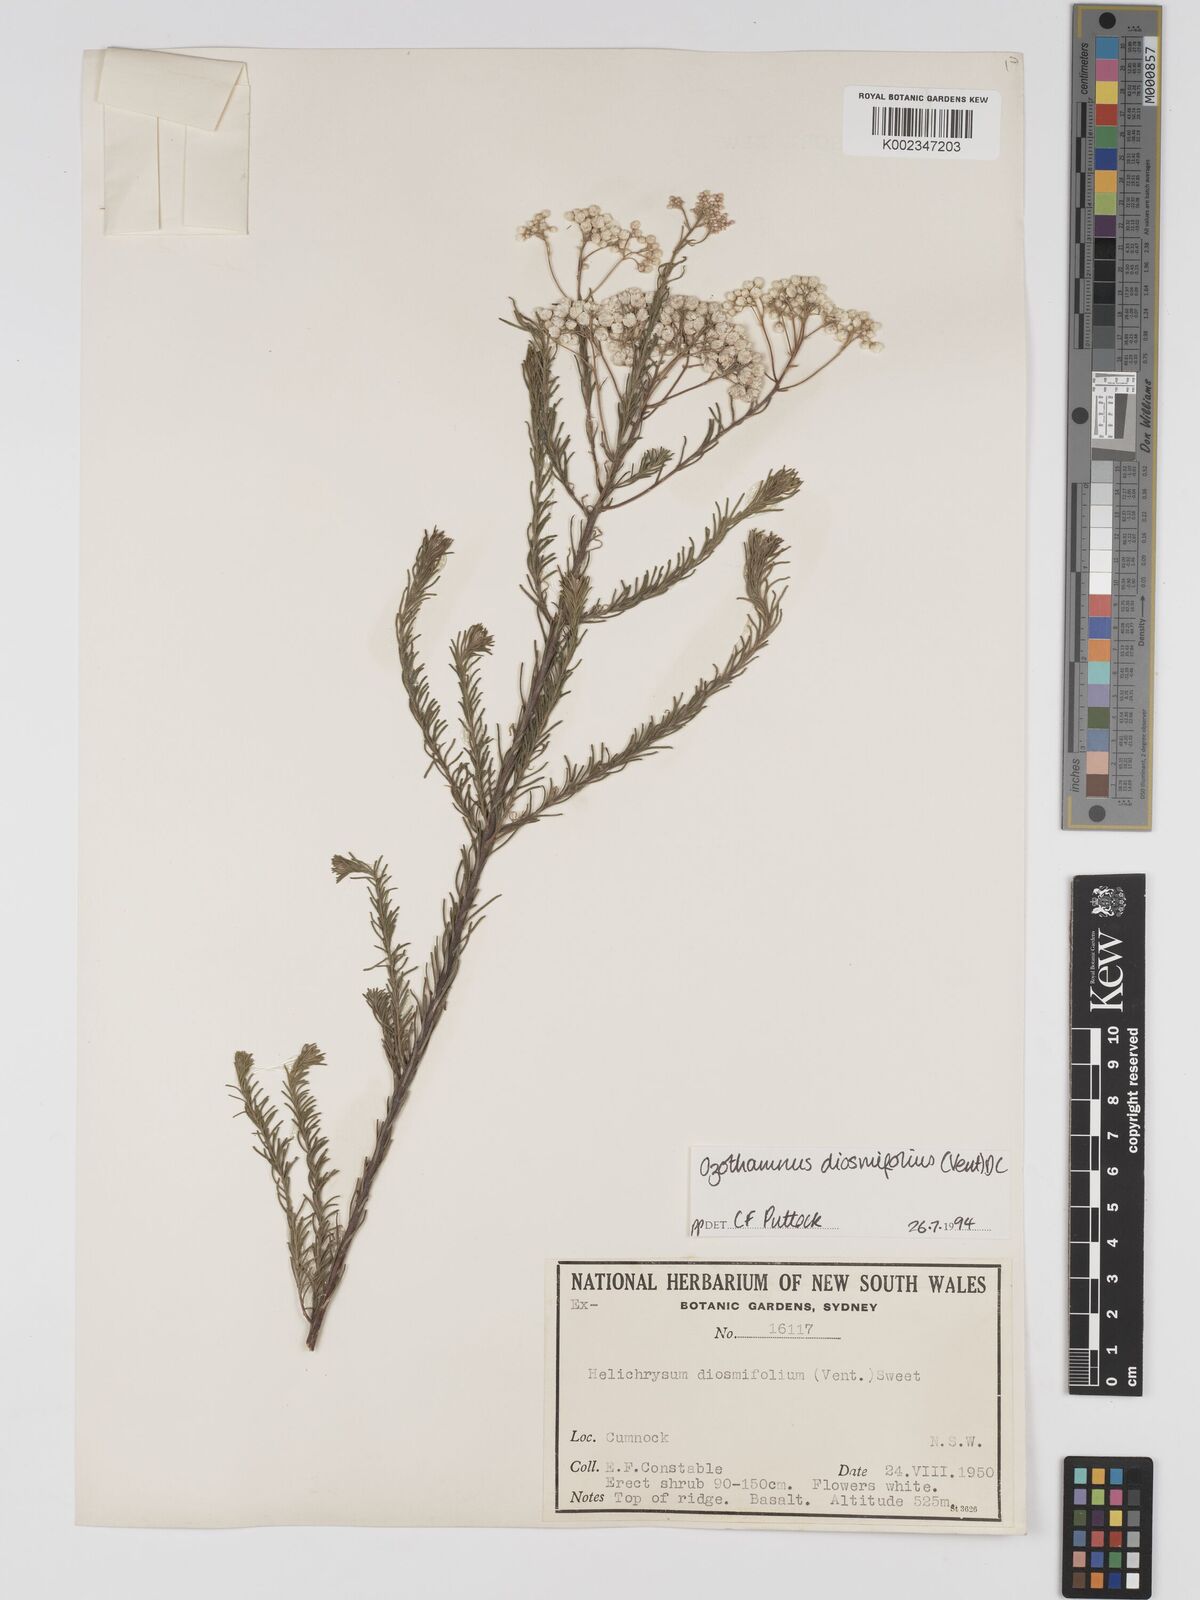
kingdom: Plantae
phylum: Tracheophyta
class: Magnoliopsida
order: Asterales
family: Asteraceae
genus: Ozothamnus
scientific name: Ozothamnus diosmifolius
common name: White-dogwood
